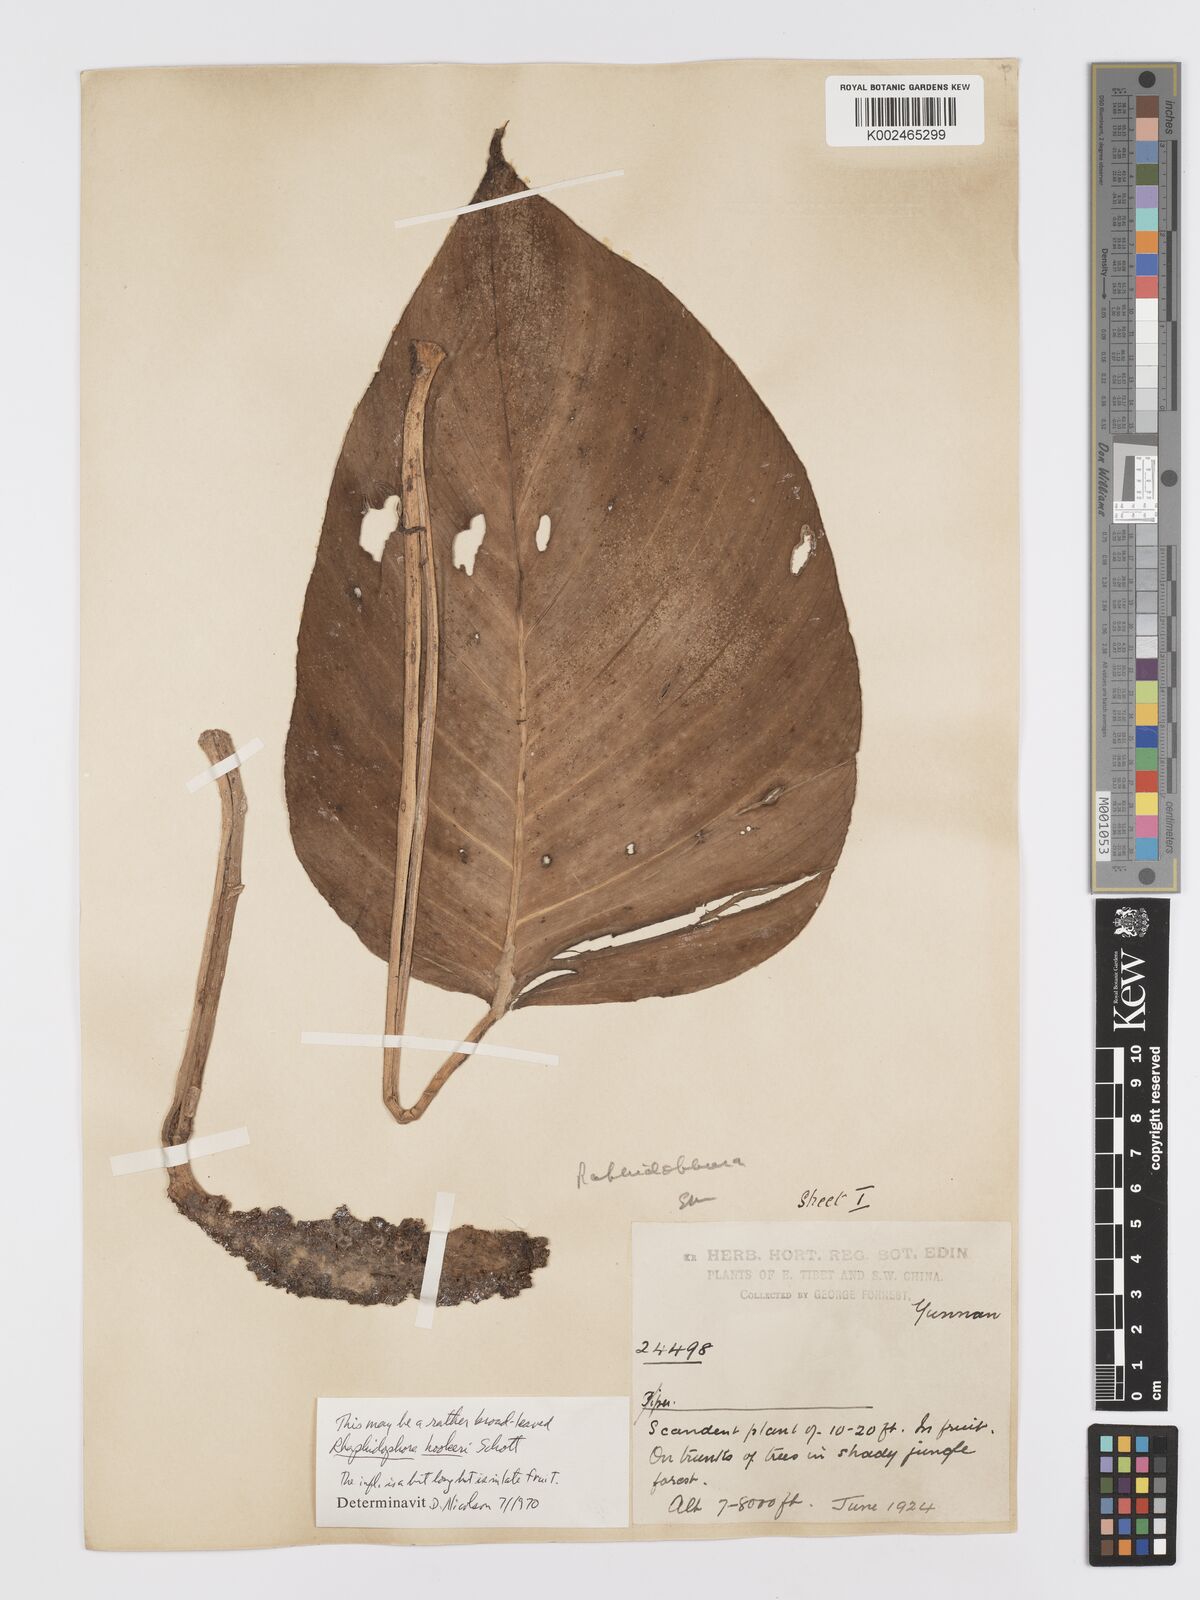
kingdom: Plantae
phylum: Tracheophyta
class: Liliopsida
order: Alismatales
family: Araceae
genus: Rhaphidophora
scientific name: Rhaphidophora hookeri
